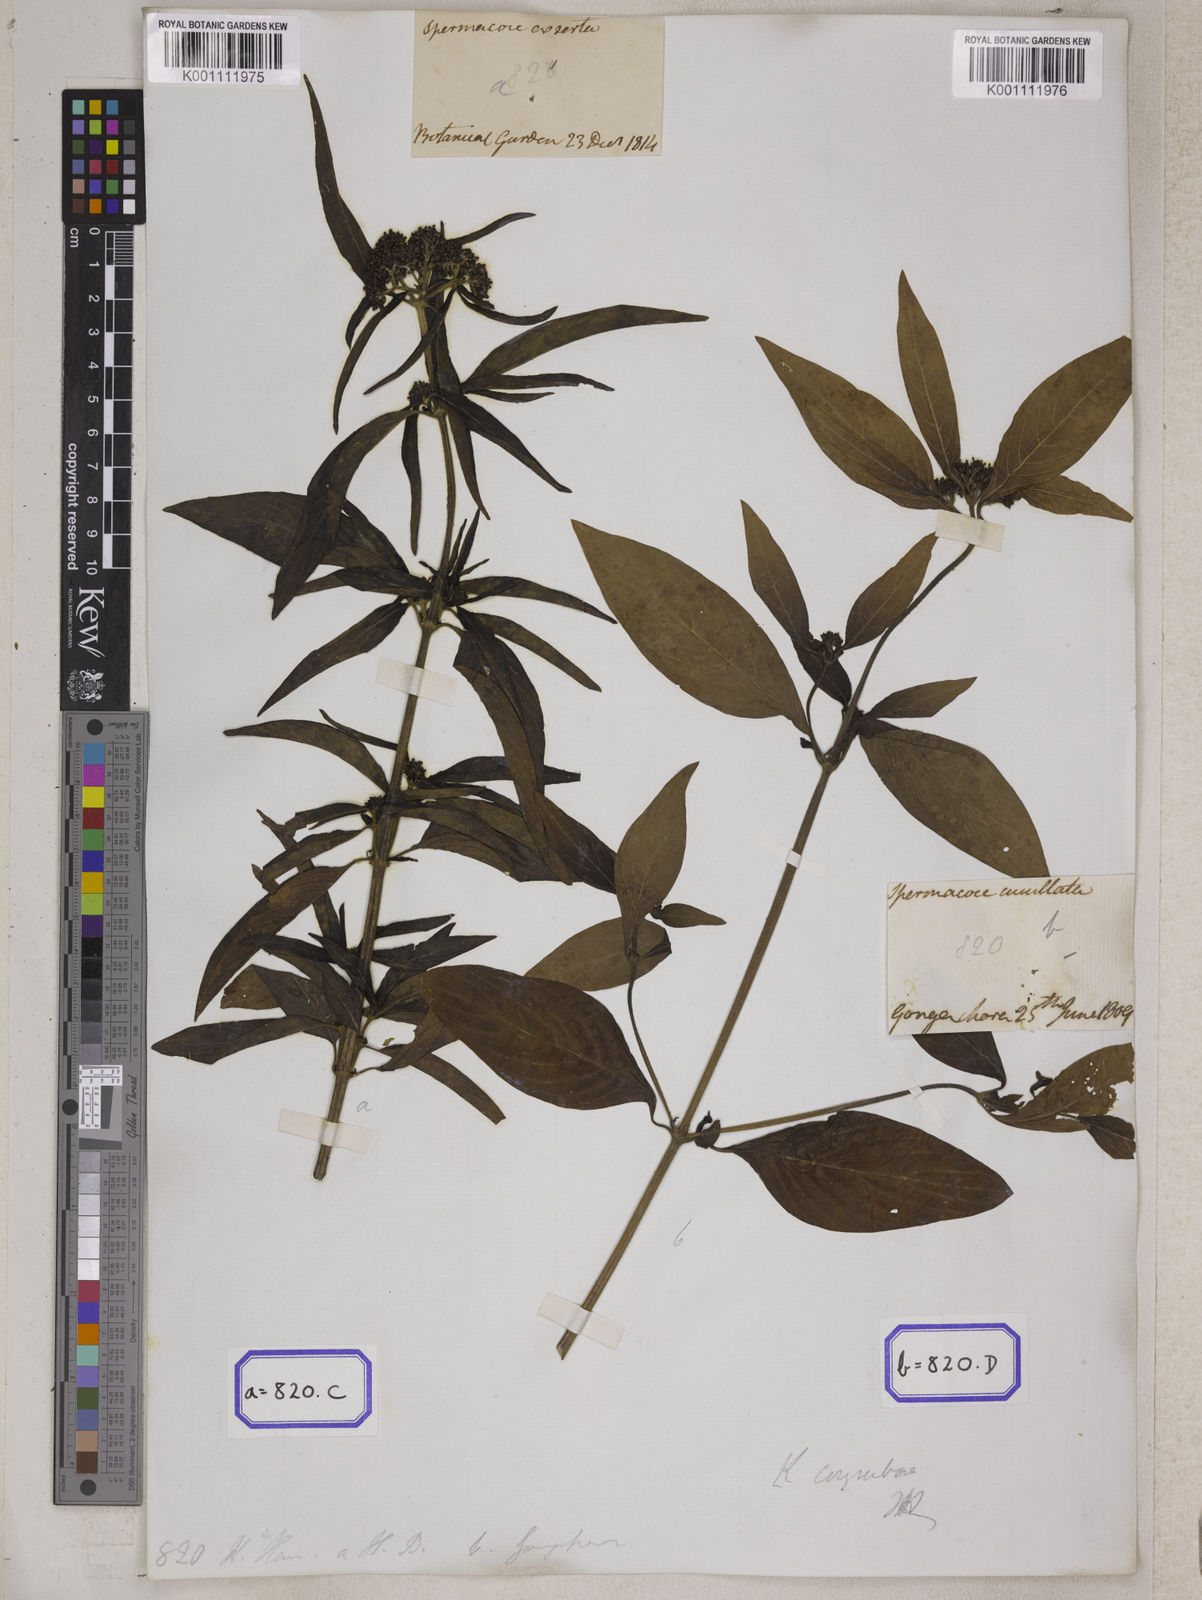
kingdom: Plantae
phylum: Tracheophyta
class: Magnoliopsida
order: Gentianales
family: Rubiaceae
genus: Knoxia
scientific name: Knoxia
